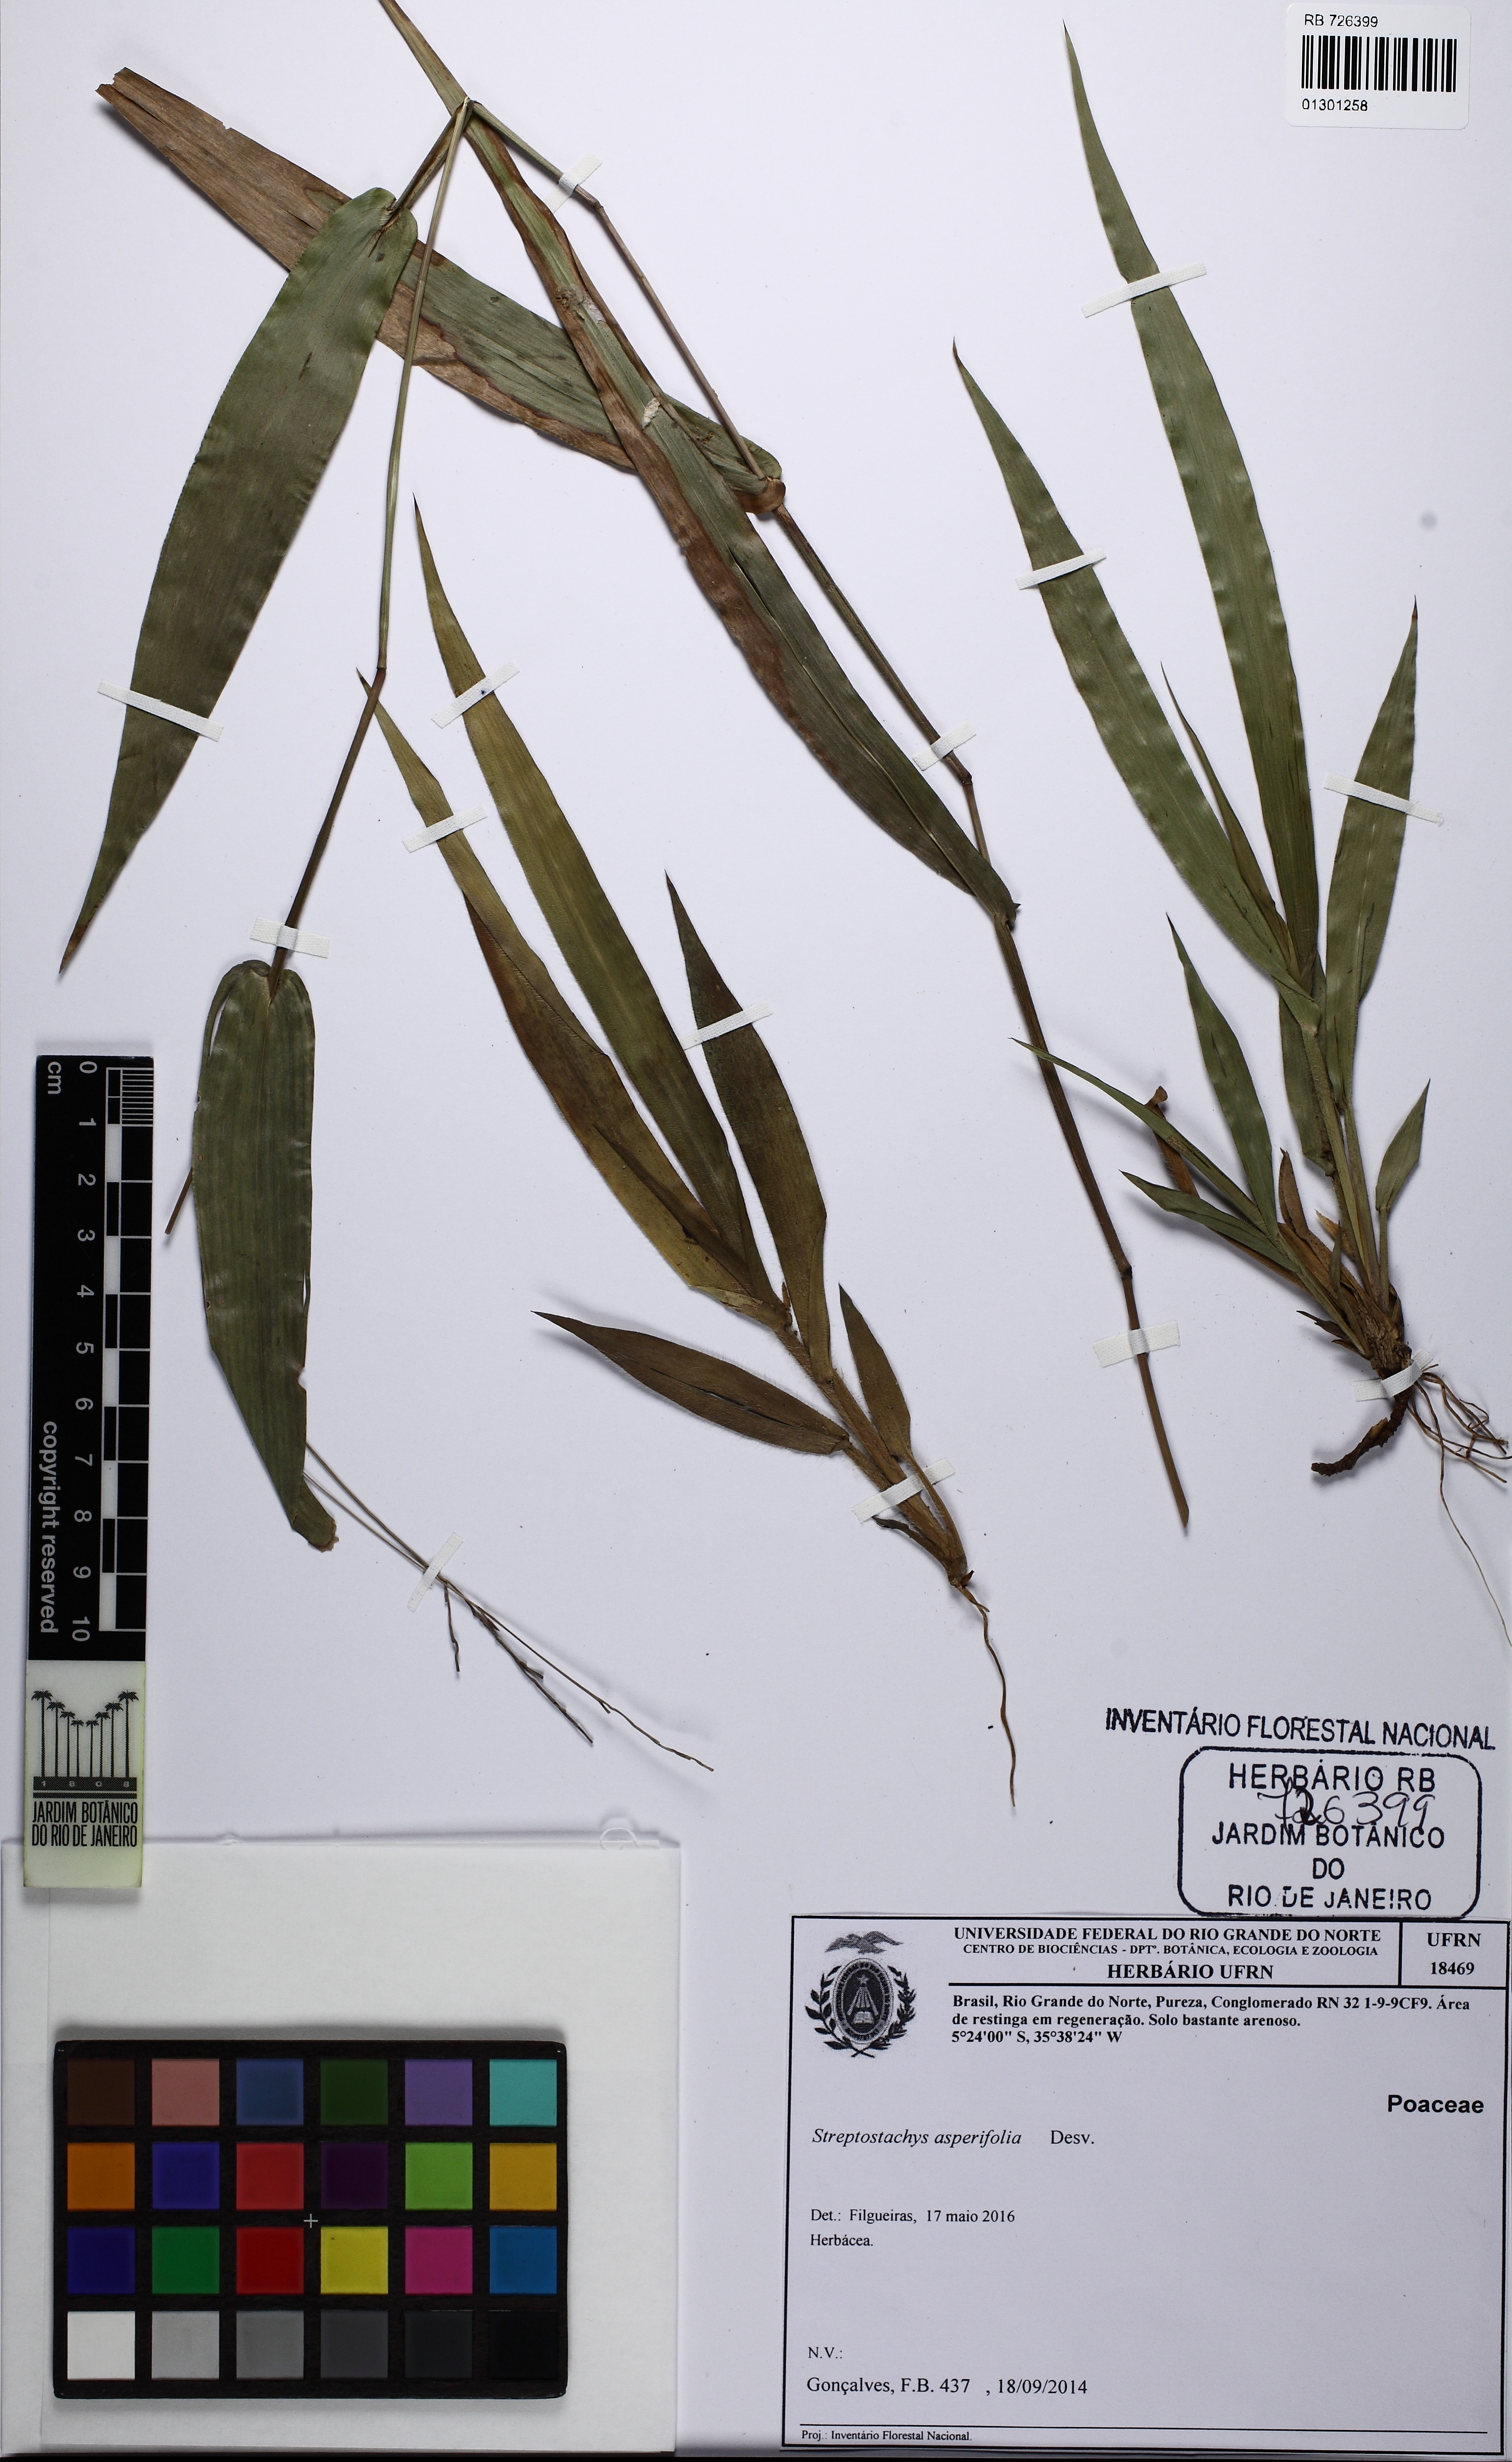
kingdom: Plantae
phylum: Tracheophyta
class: Liliopsida
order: Poales
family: Poaceae
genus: Streptostachys
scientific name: Streptostachys asperifolia
